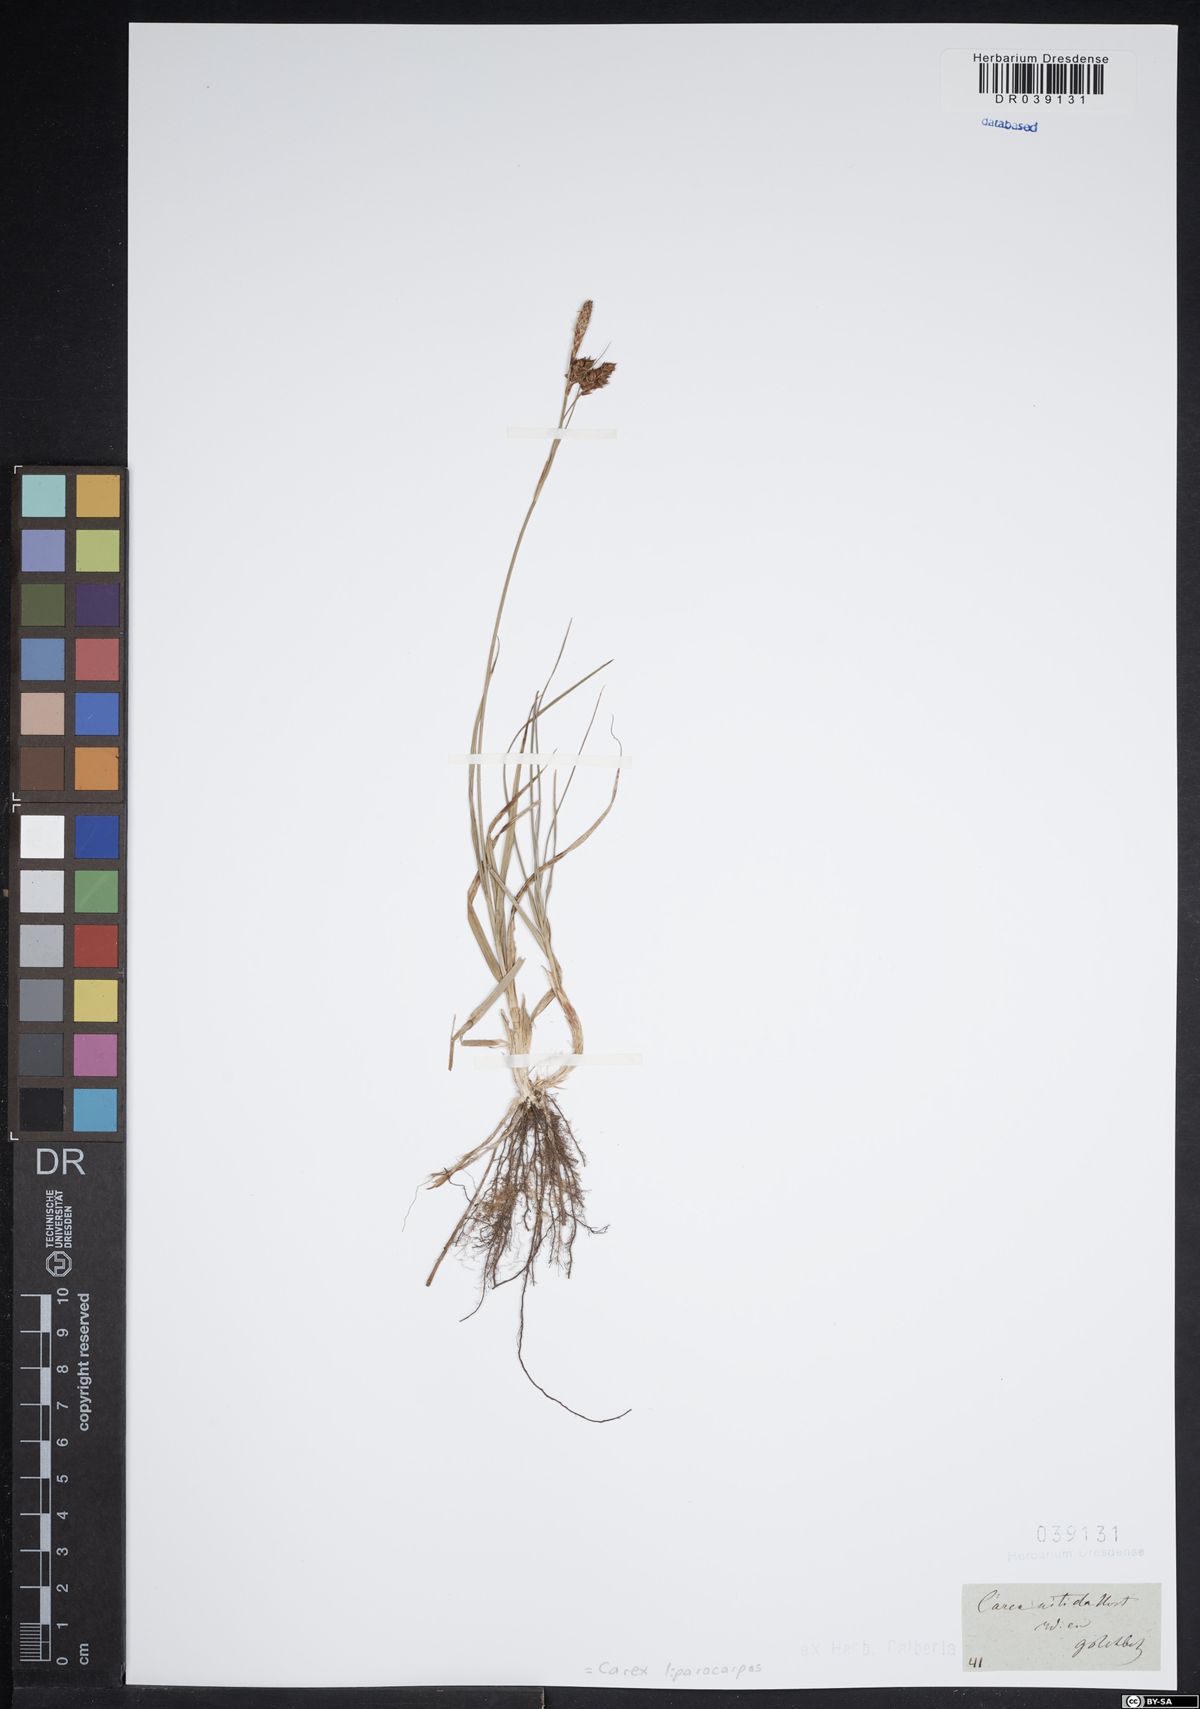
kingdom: Plantae
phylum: Tracheophyta
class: Liliopsida
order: Poales
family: Cyperaceae
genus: Carex
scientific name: Carex liparocarpos
